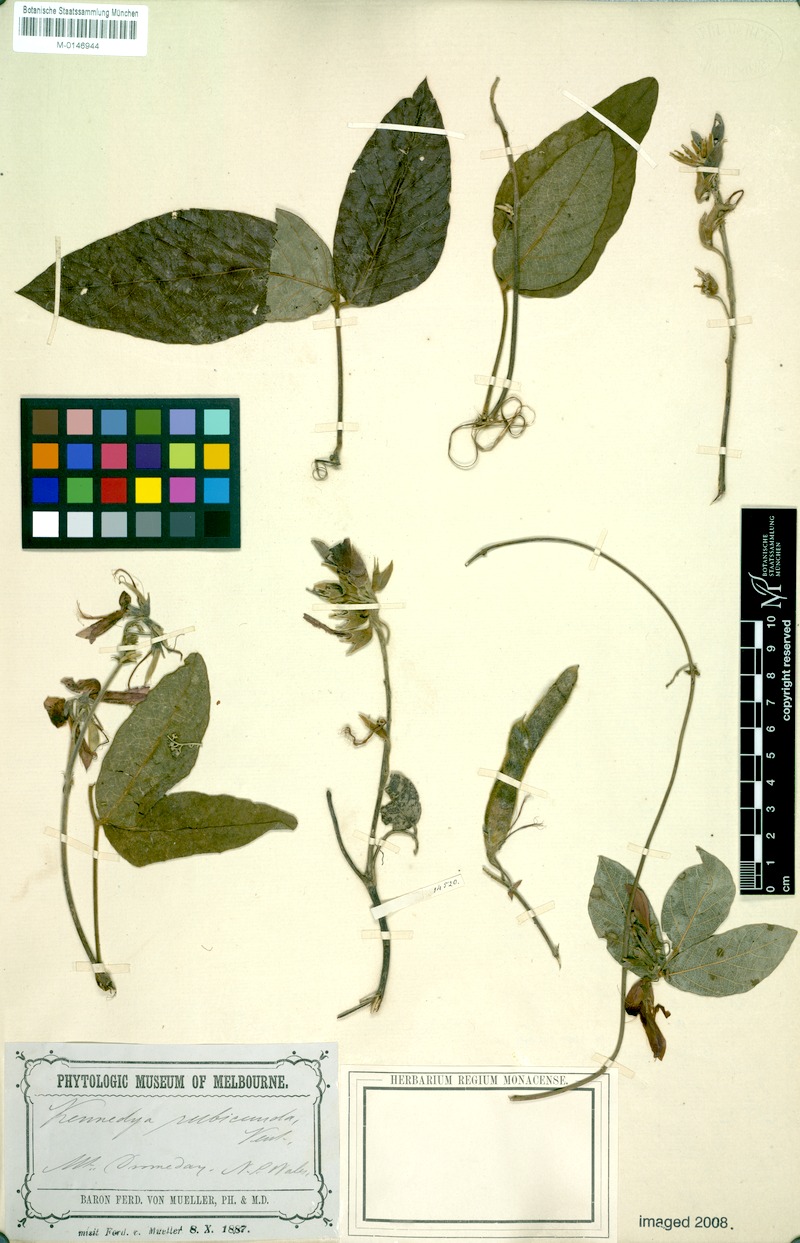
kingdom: Plantae
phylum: Tracheophyta
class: Magnoliopsida
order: Fabales
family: Fabaceae
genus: Kennedia
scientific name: Kennedia rubicunda
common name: Red kennedy-pea
